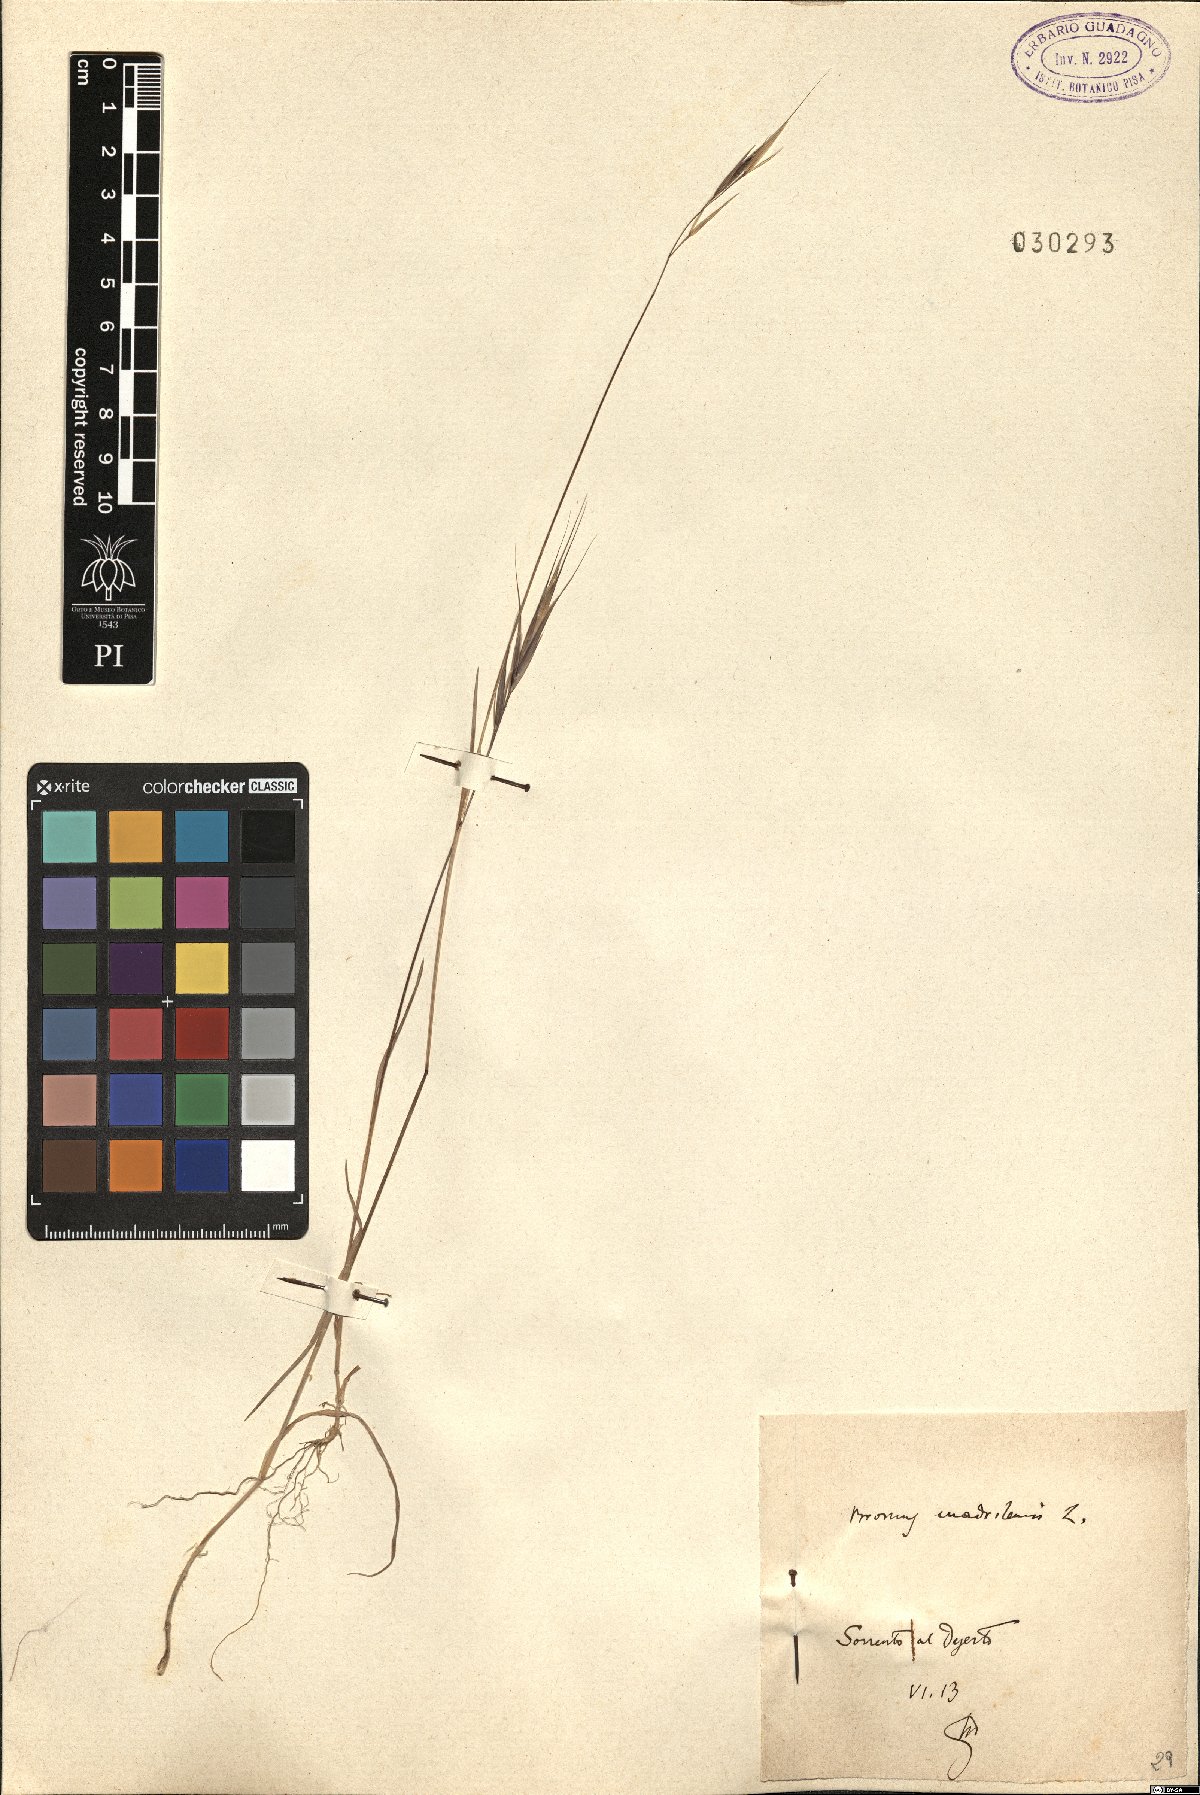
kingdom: Plantae
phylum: Tracheophyta
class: Liliopsida
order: Poales
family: Poaceae
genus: Bromus
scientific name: Bromus madritensis
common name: Compact brome
